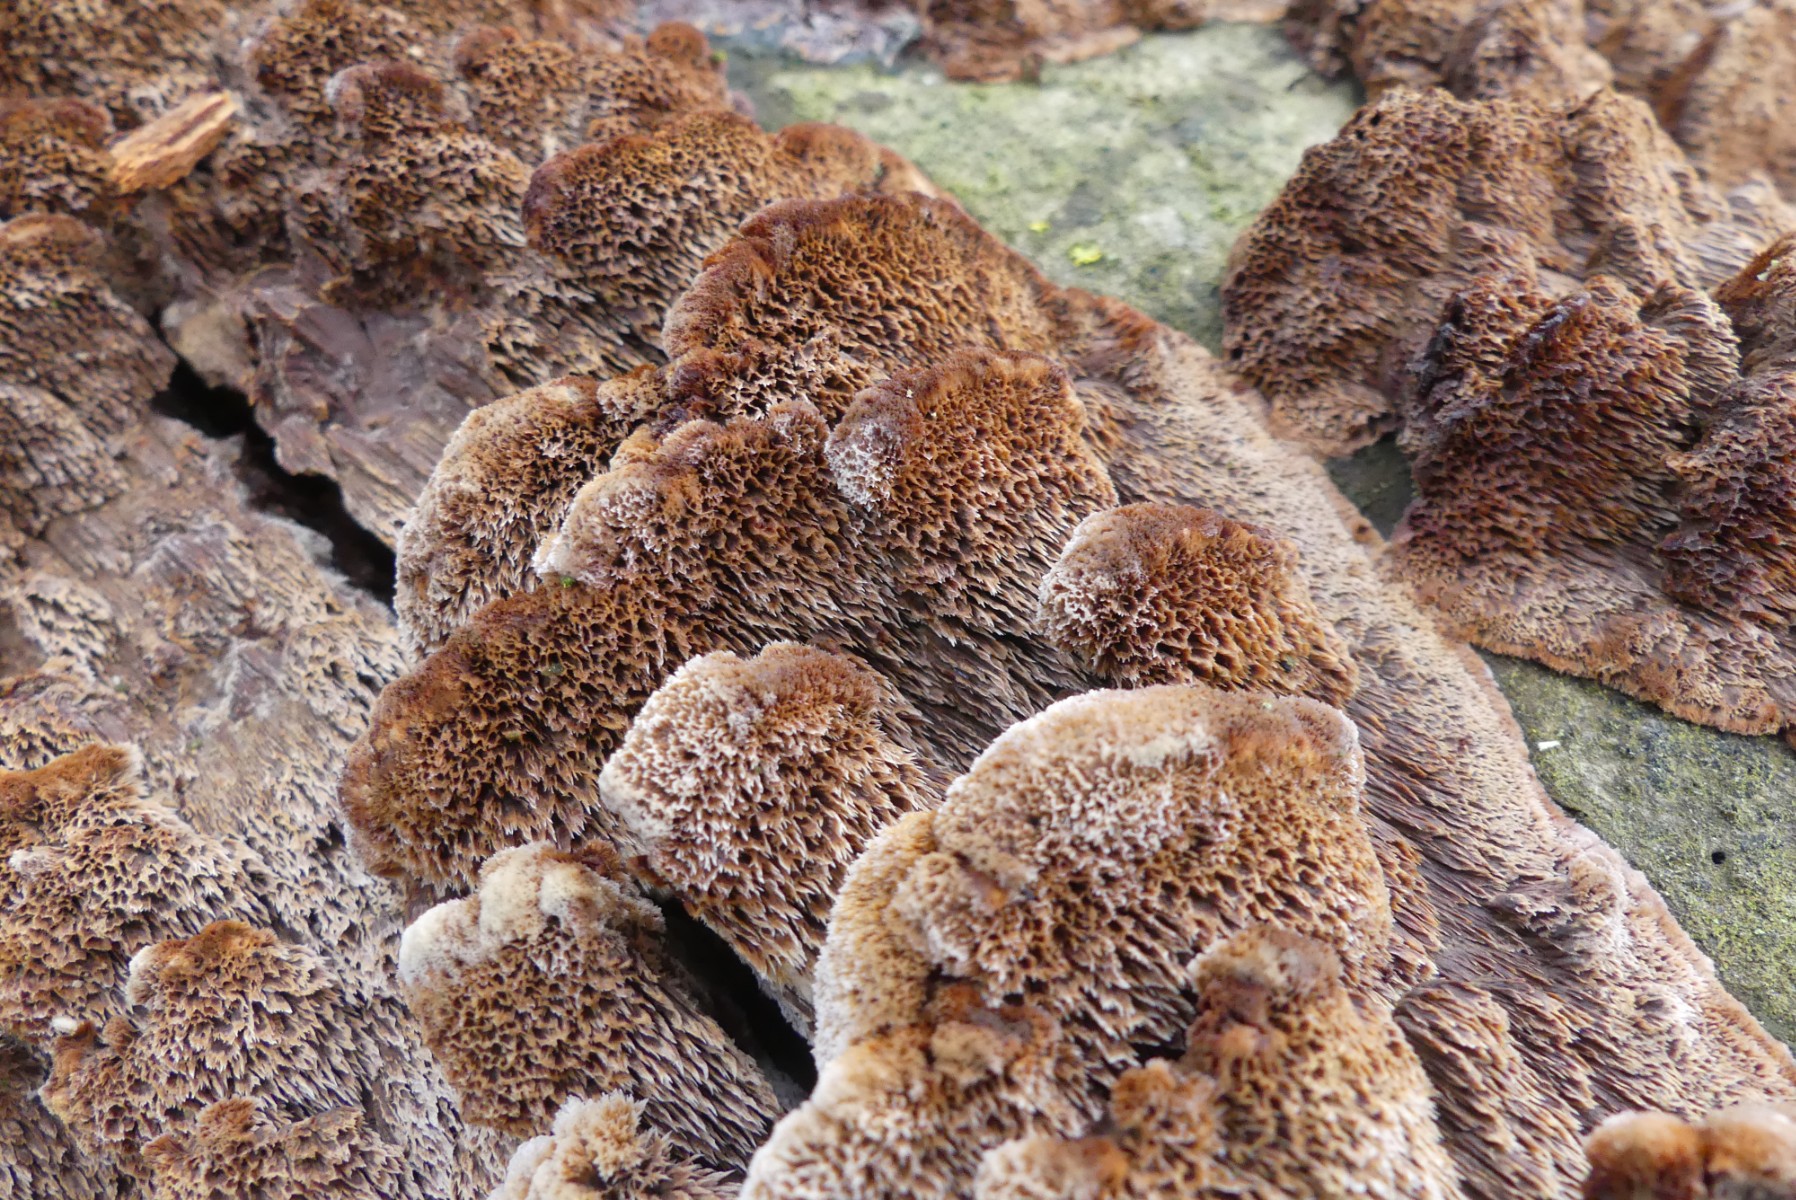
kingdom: Fungi
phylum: Basidiomycota
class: Agaricomycetes
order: Hymenochaetales
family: Hymenochaetaceae
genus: Mensularia
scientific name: Mensularia nodulosa
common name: bøge-spejlporesvamp
